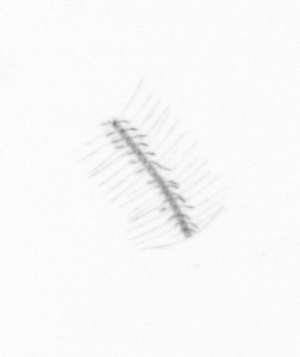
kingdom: Chromista
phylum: Ochrophyta
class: Bacillariophyceae
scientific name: Bacillariophyceae
